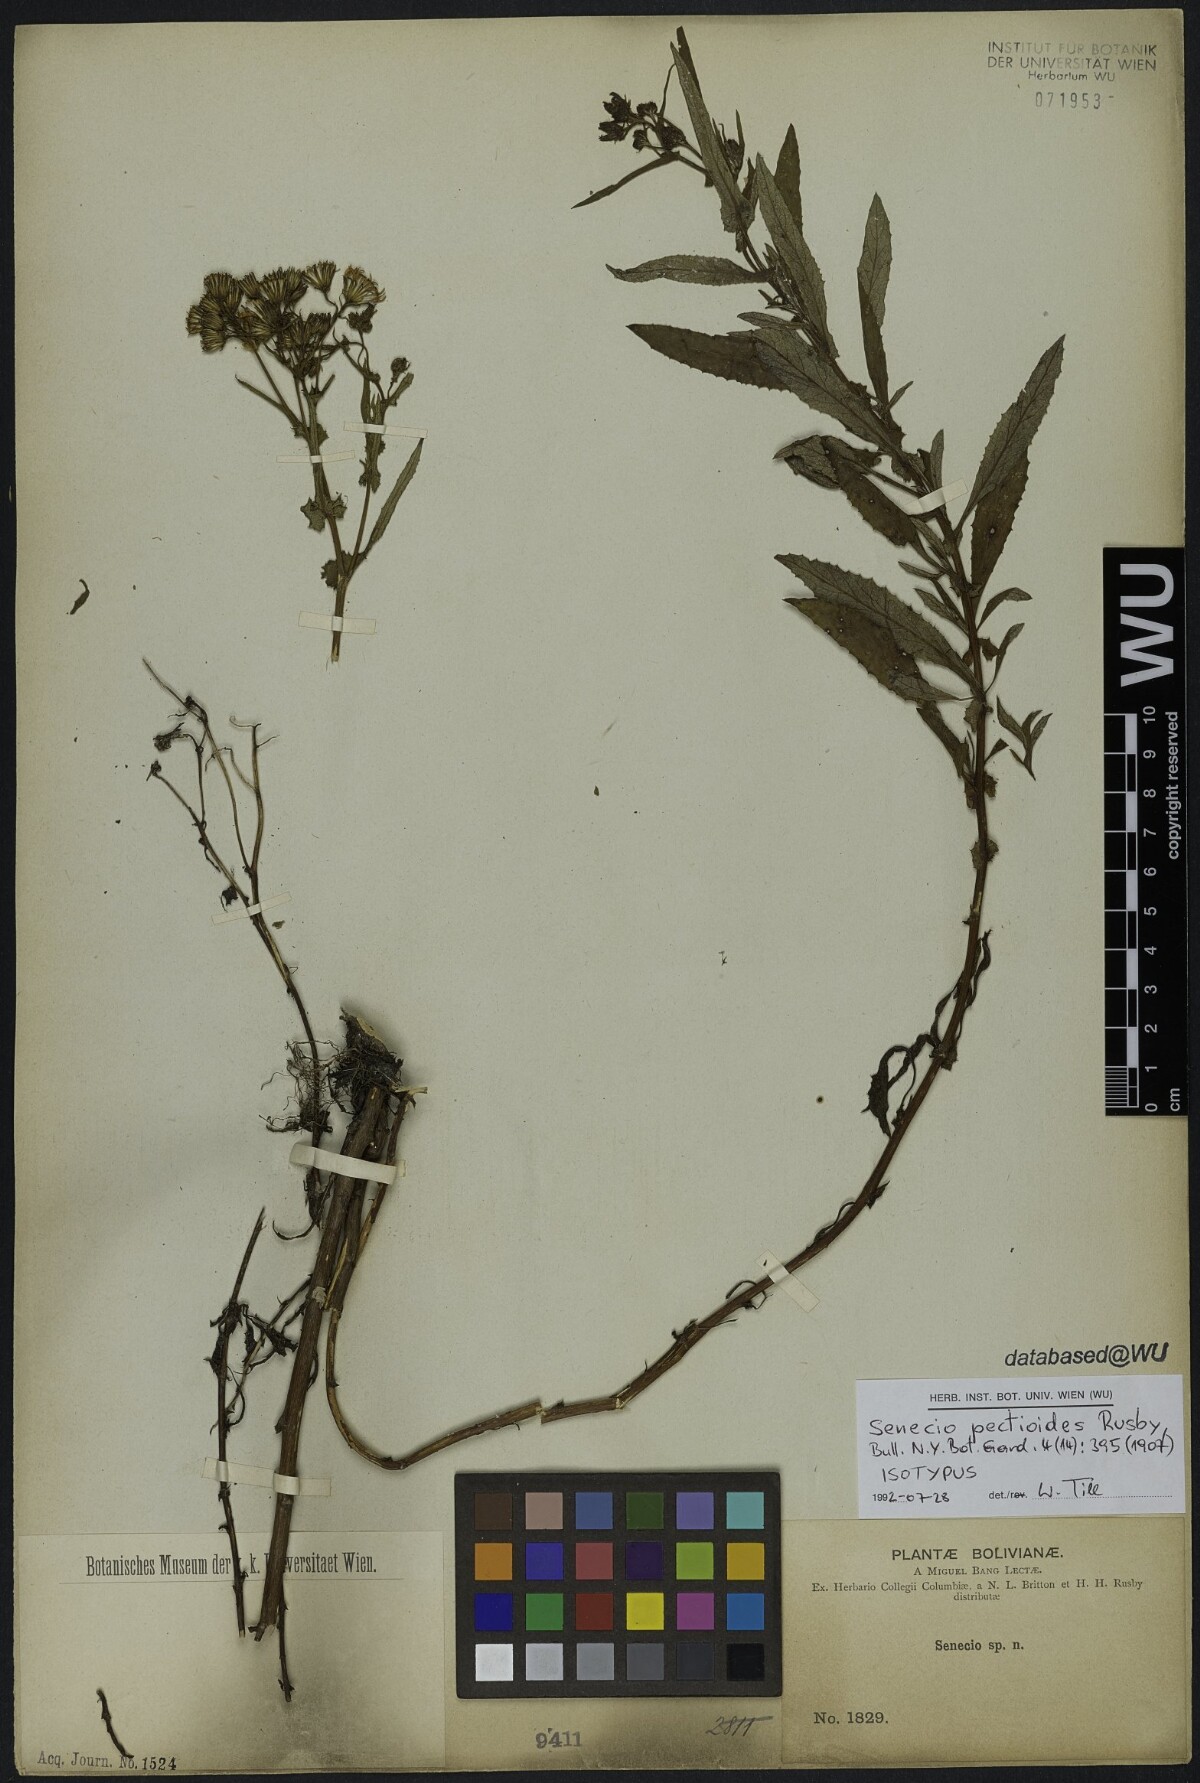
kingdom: Plantae
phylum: Tracheophyta
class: Magnoliopsida
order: Asterales
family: Asteraceae
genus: Senecio
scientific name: Senecio boliviensis
